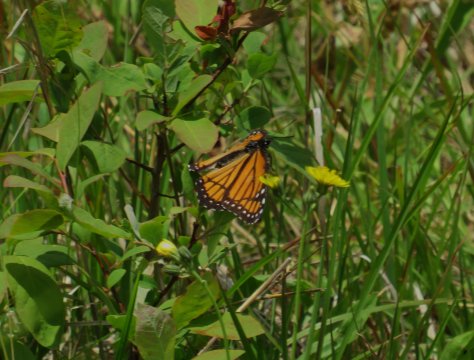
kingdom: Animalia
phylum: Arthropoda
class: Insecta
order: Lepidoptera
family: Nymphalidae
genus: Limenitis
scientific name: Limenitis archippus
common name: Viceroy
